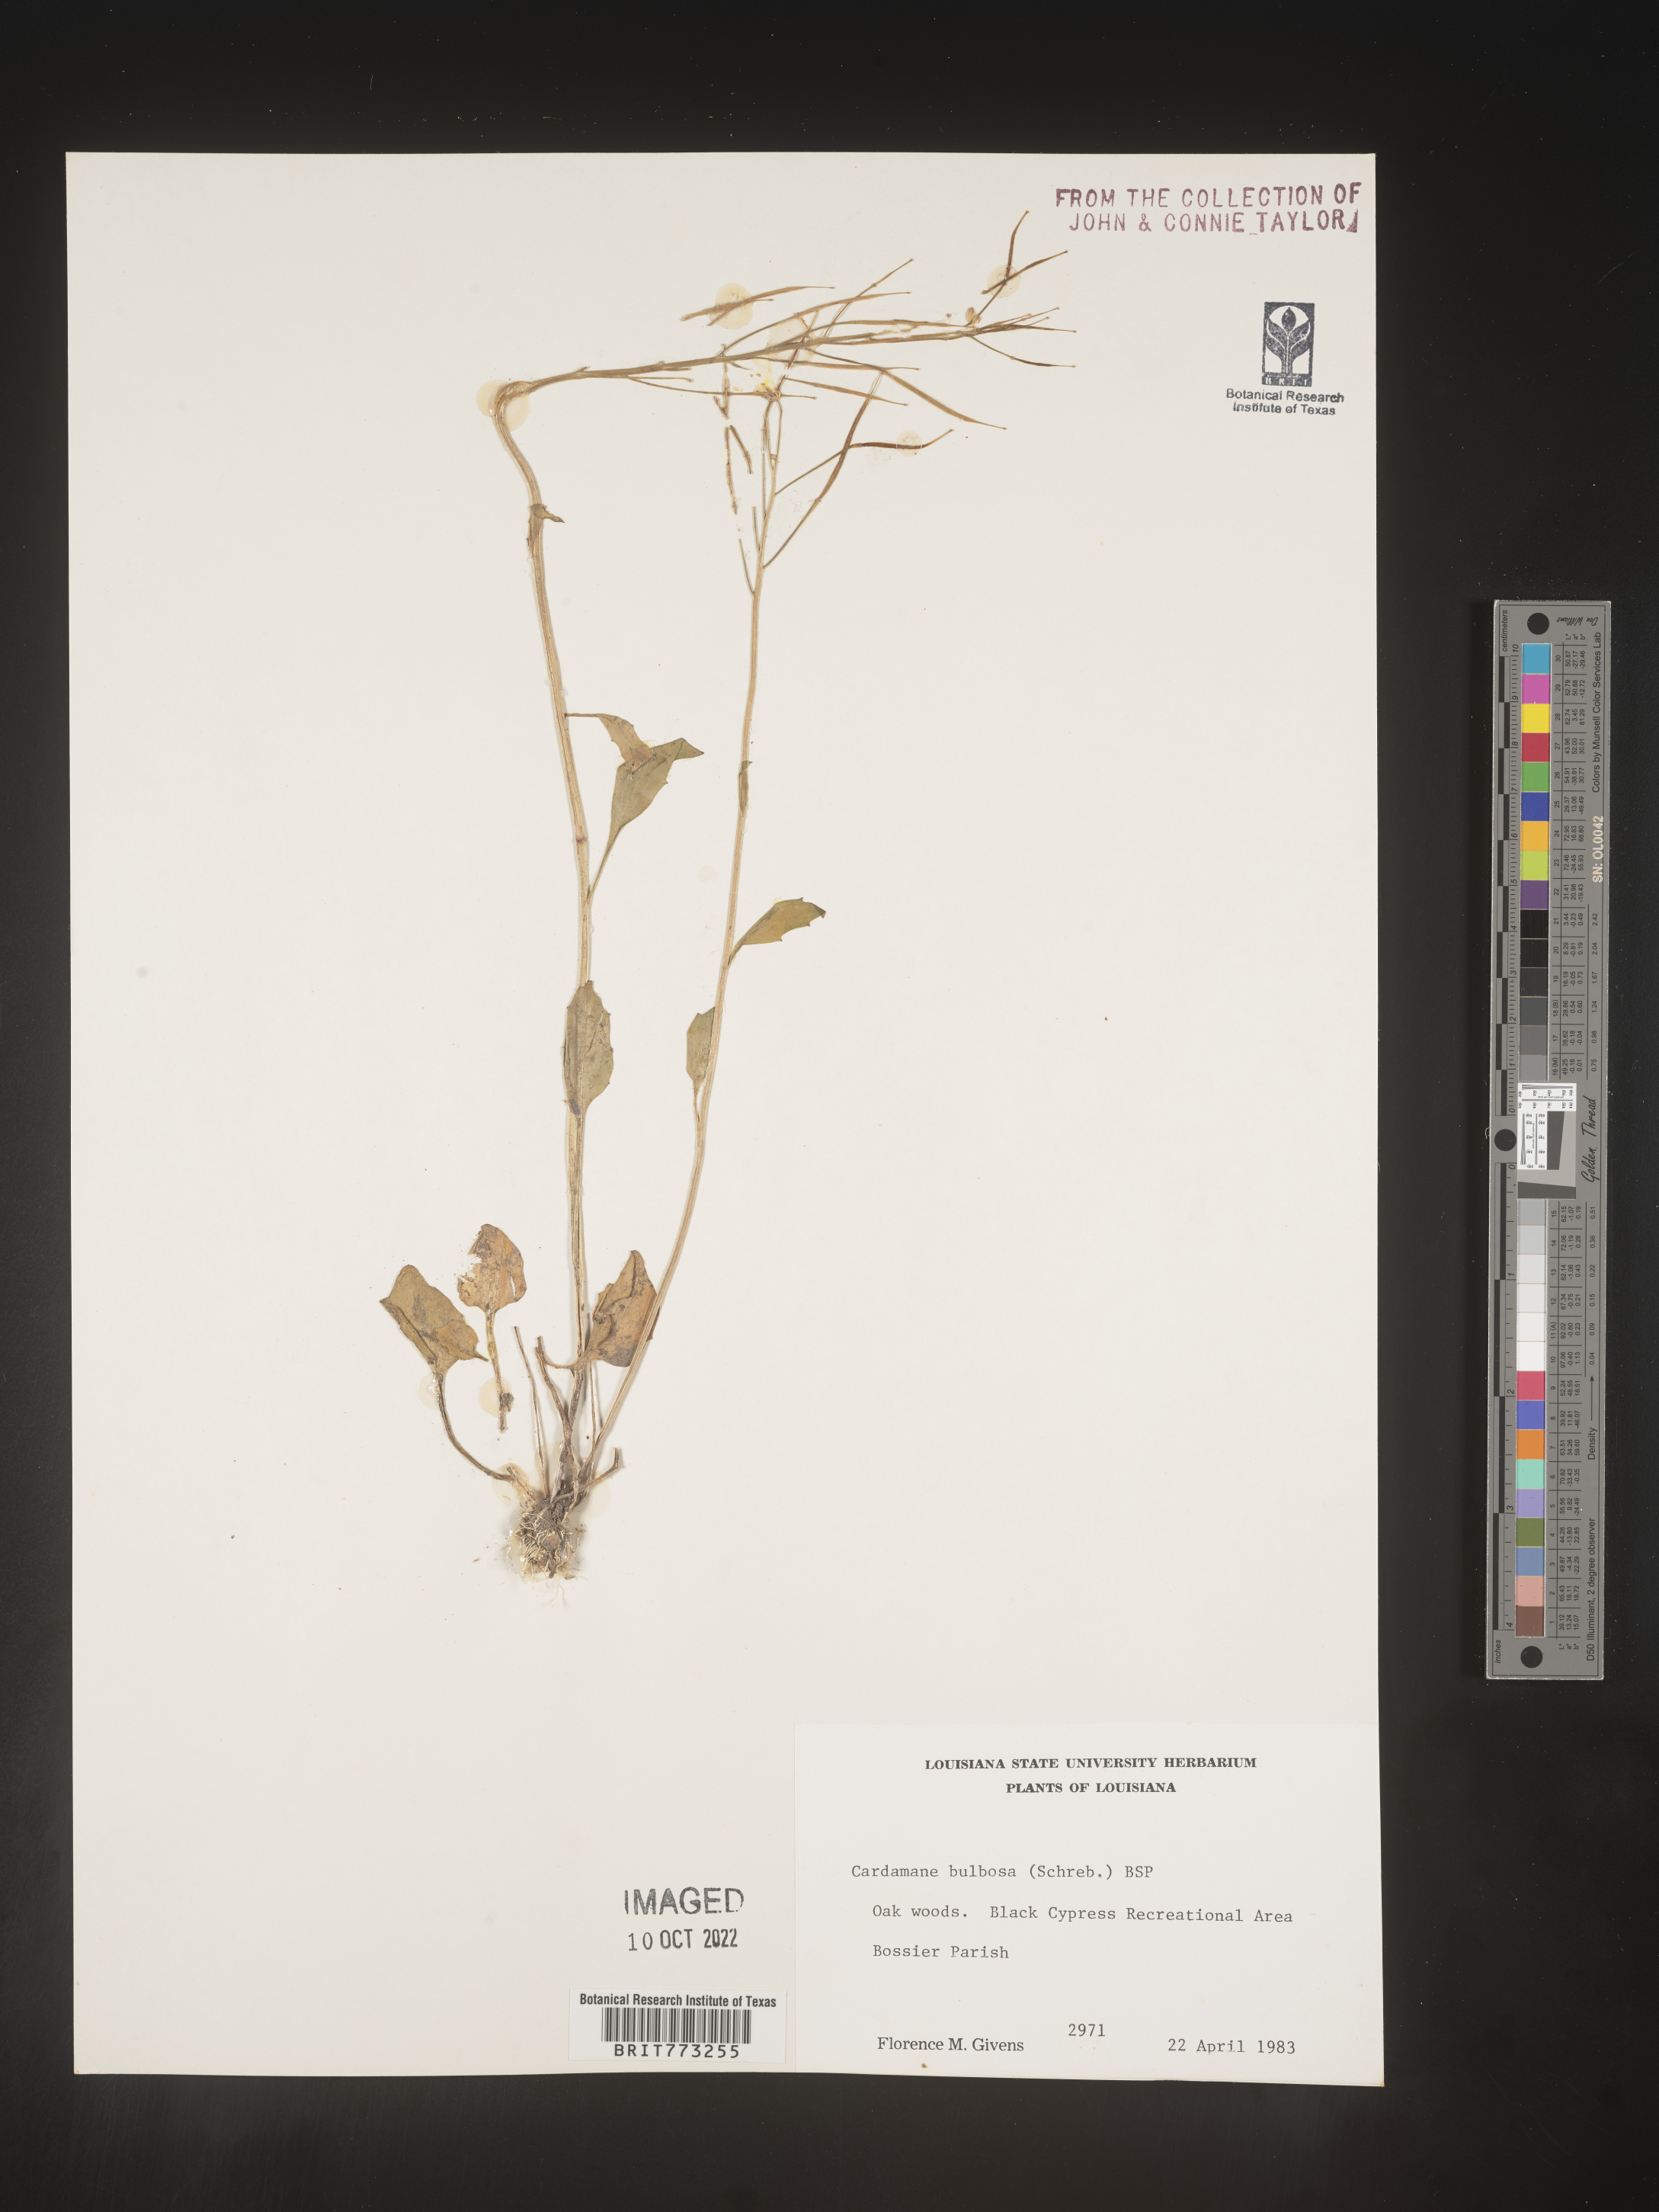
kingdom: Plantae
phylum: Tracheophyta
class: Magnoliopsida
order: Brassicales
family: Brassicaceae
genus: Cardamine
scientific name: Cardamine bulbosa
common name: Spring cress
